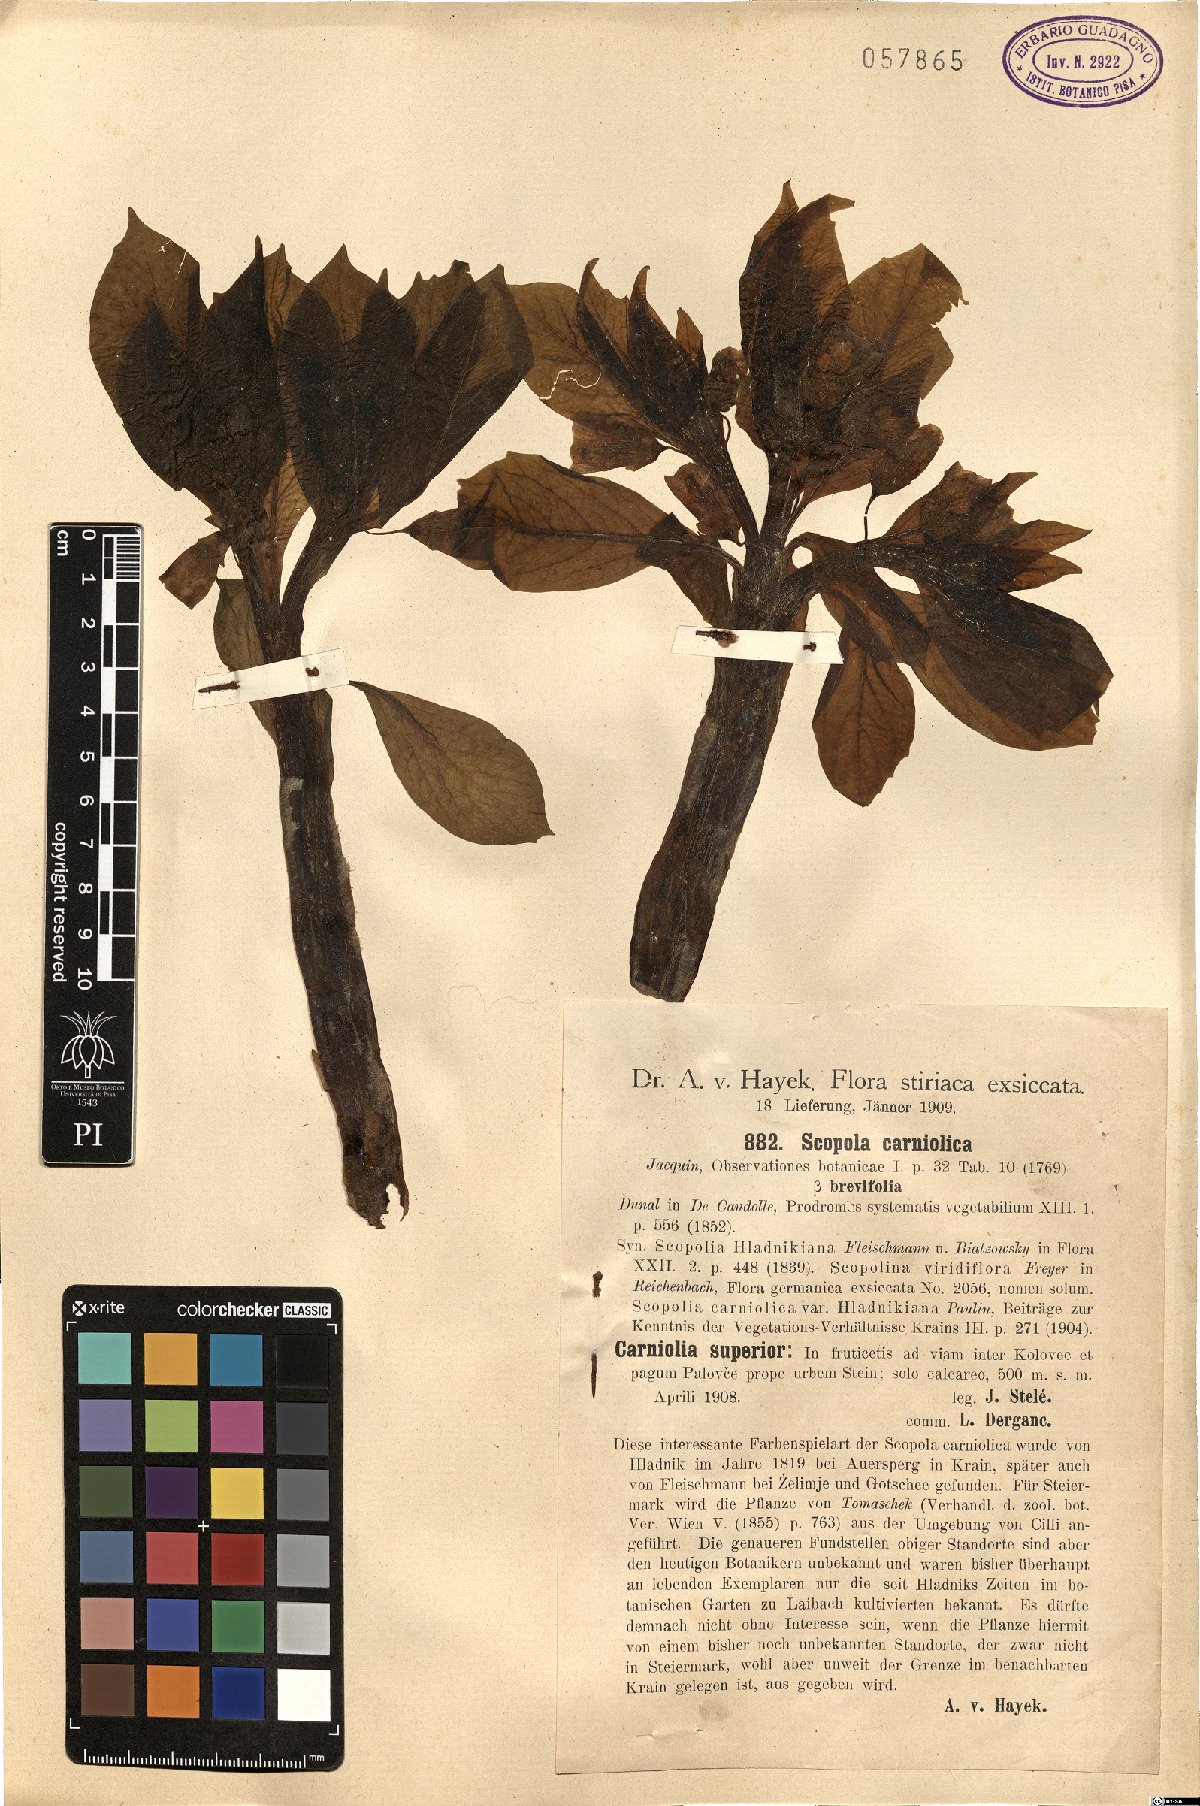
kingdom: Plantae
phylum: Tracheophyta
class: Magnoliopsida
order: Solanales
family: Solanaceae
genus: Scopolia
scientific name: Scopolia carniolica
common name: Scopolia
